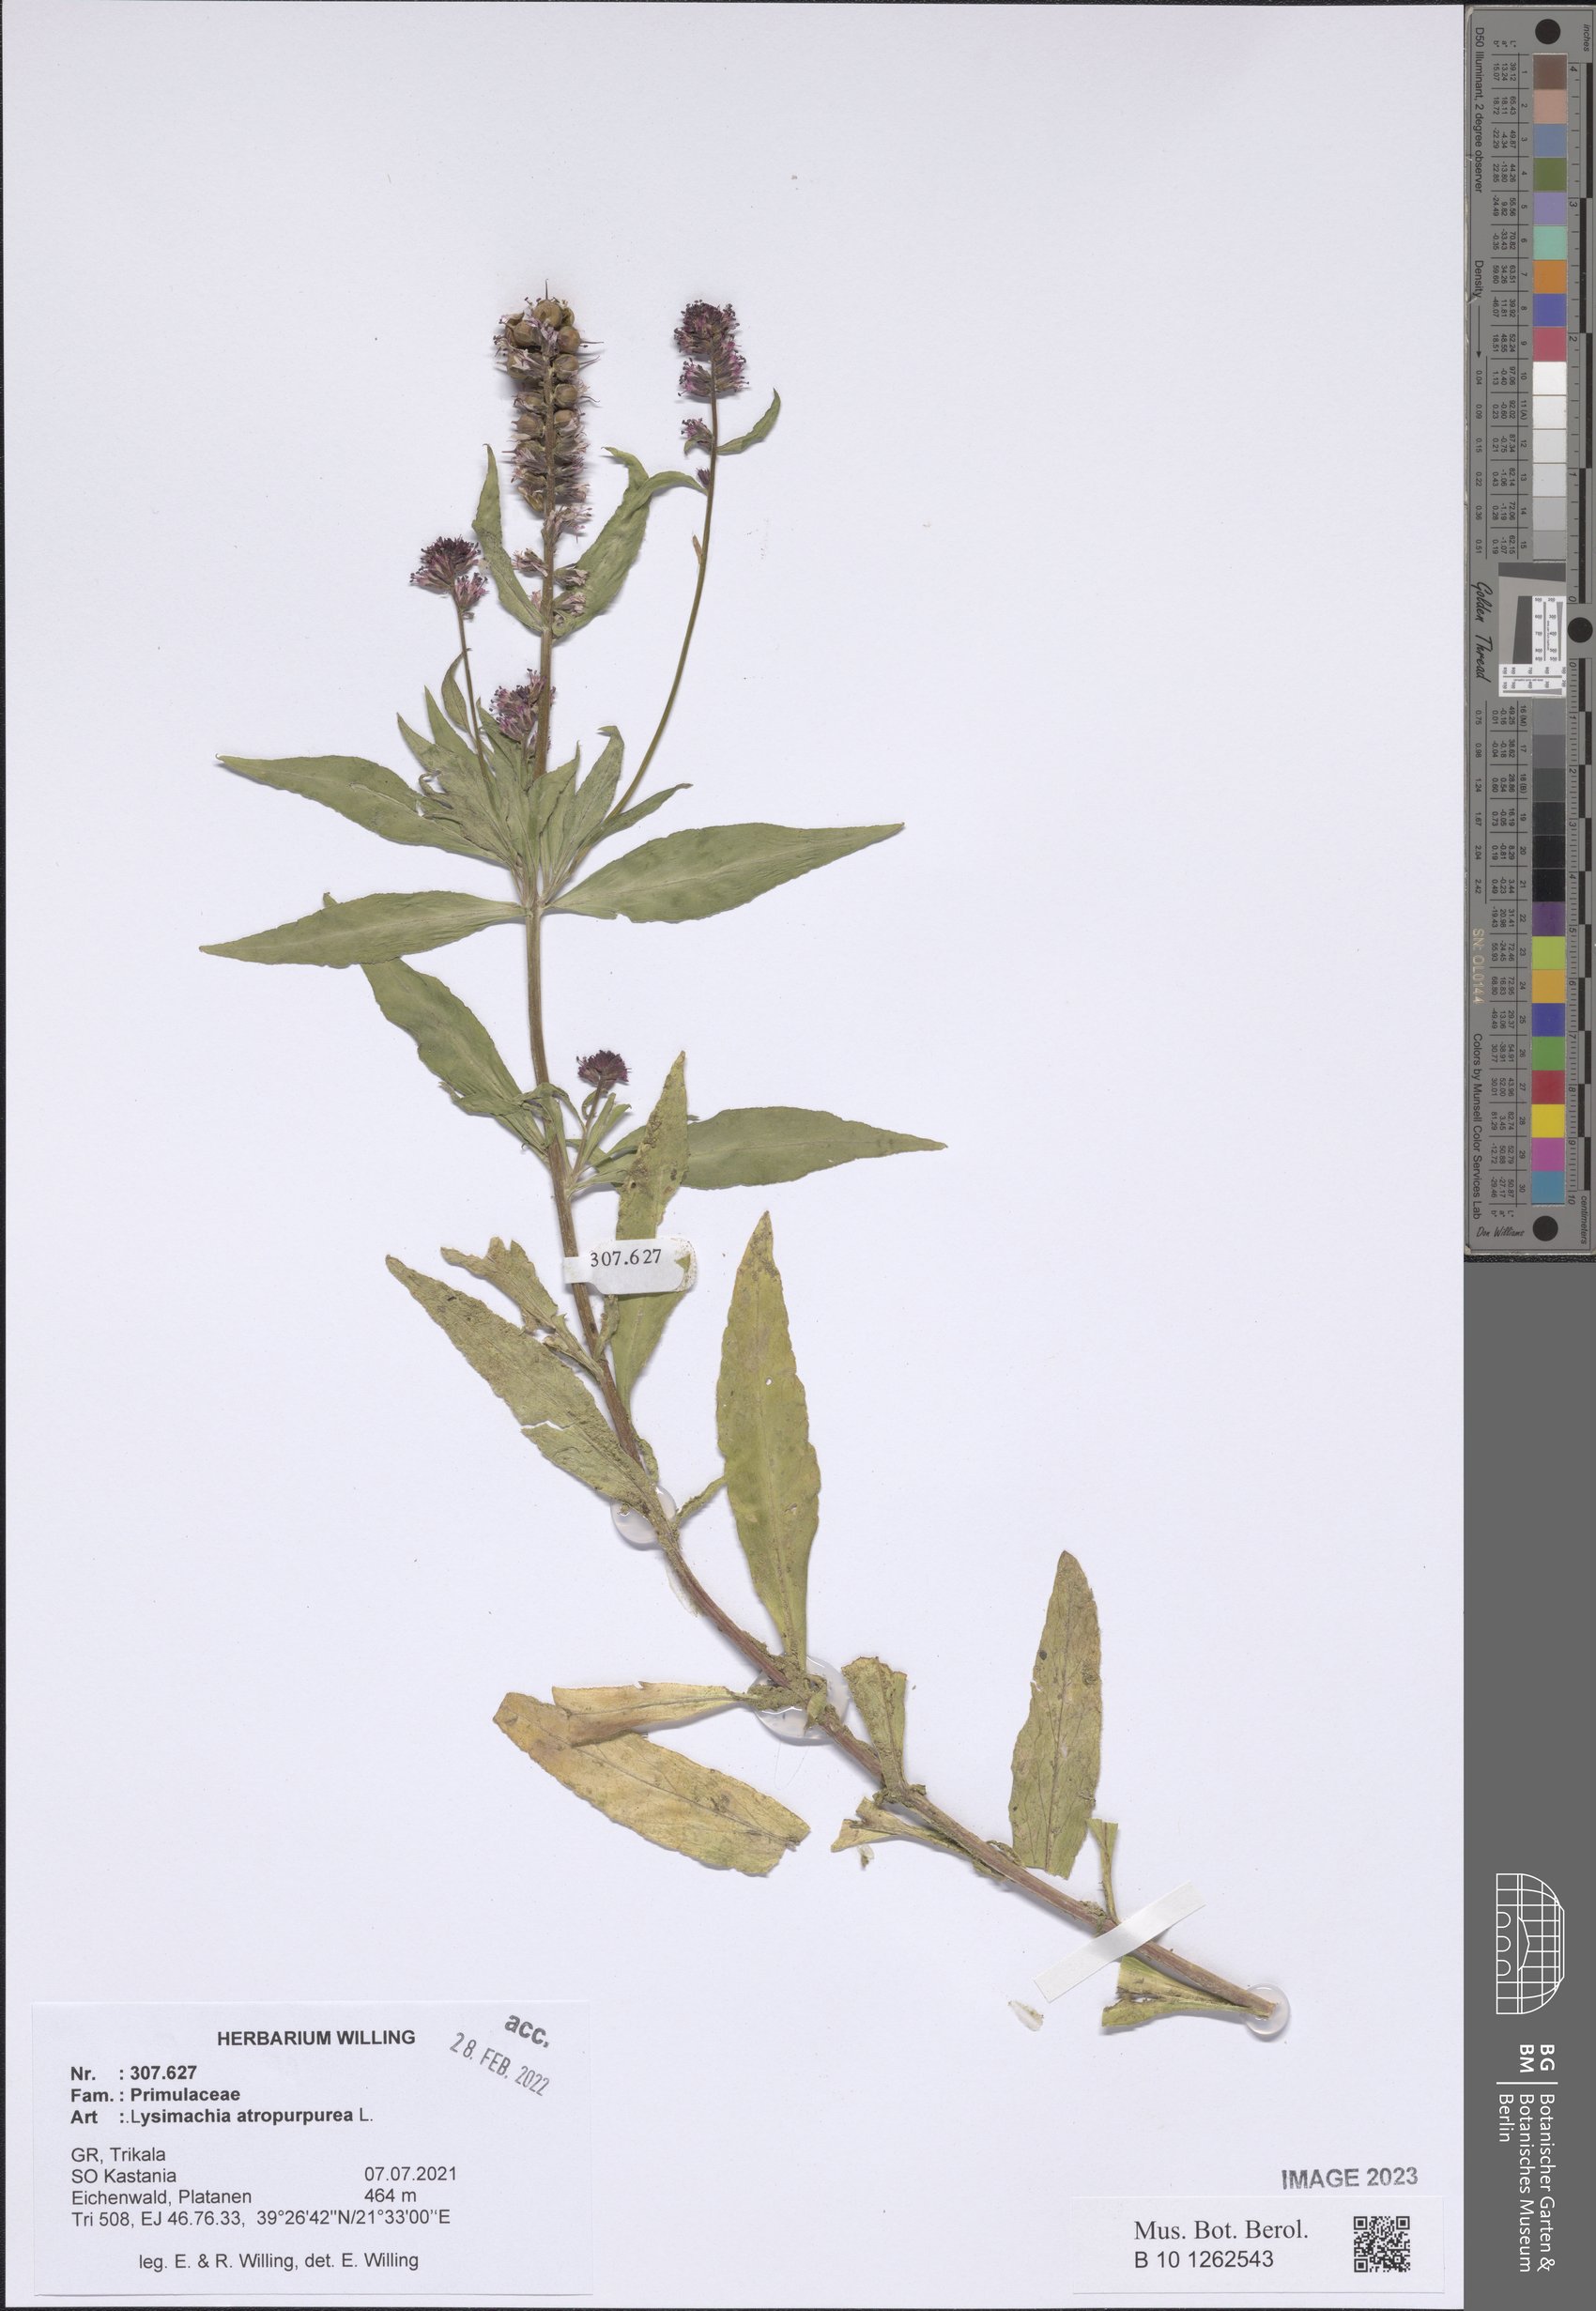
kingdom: Plantae
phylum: Tracheophyta
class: Magnoliopsida
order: Ericales
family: Primulaceae
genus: Lysimachia
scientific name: Lysimachia atropurpurea
